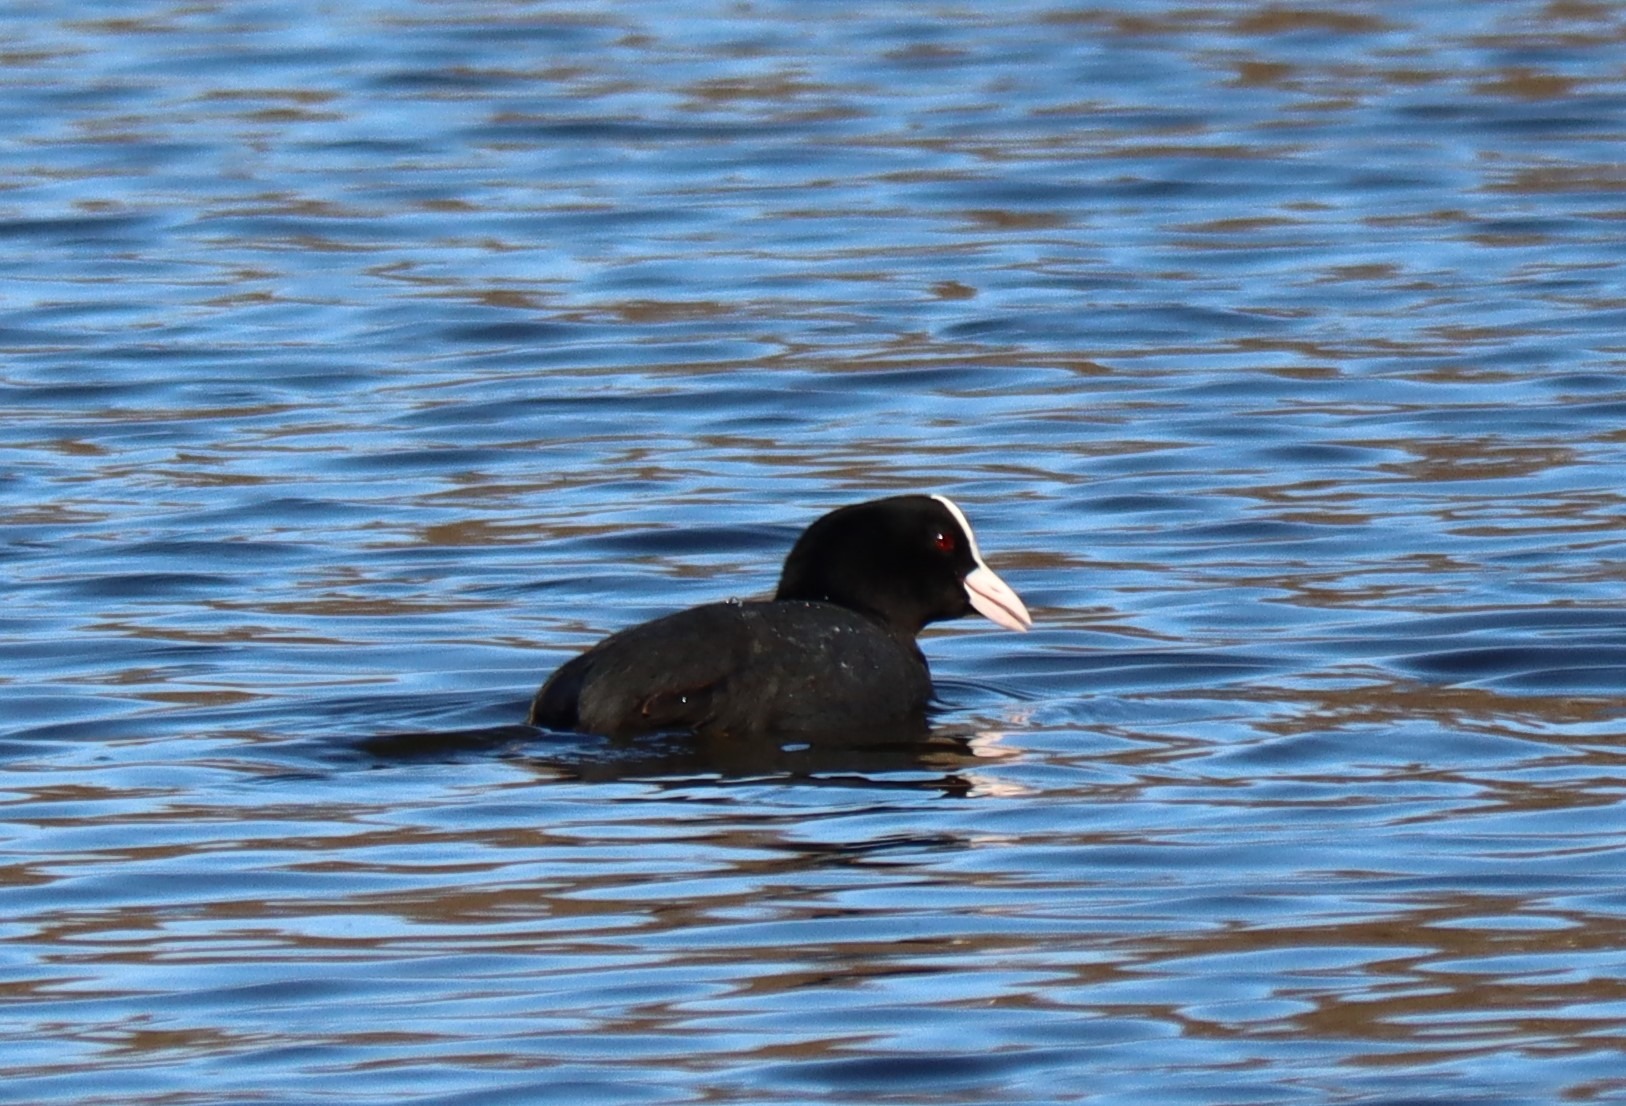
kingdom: Animalia
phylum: Chordata
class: Aves
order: Gruiformes
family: Rallidae
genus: Fulica
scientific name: Fulica atra
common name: Blishøne
